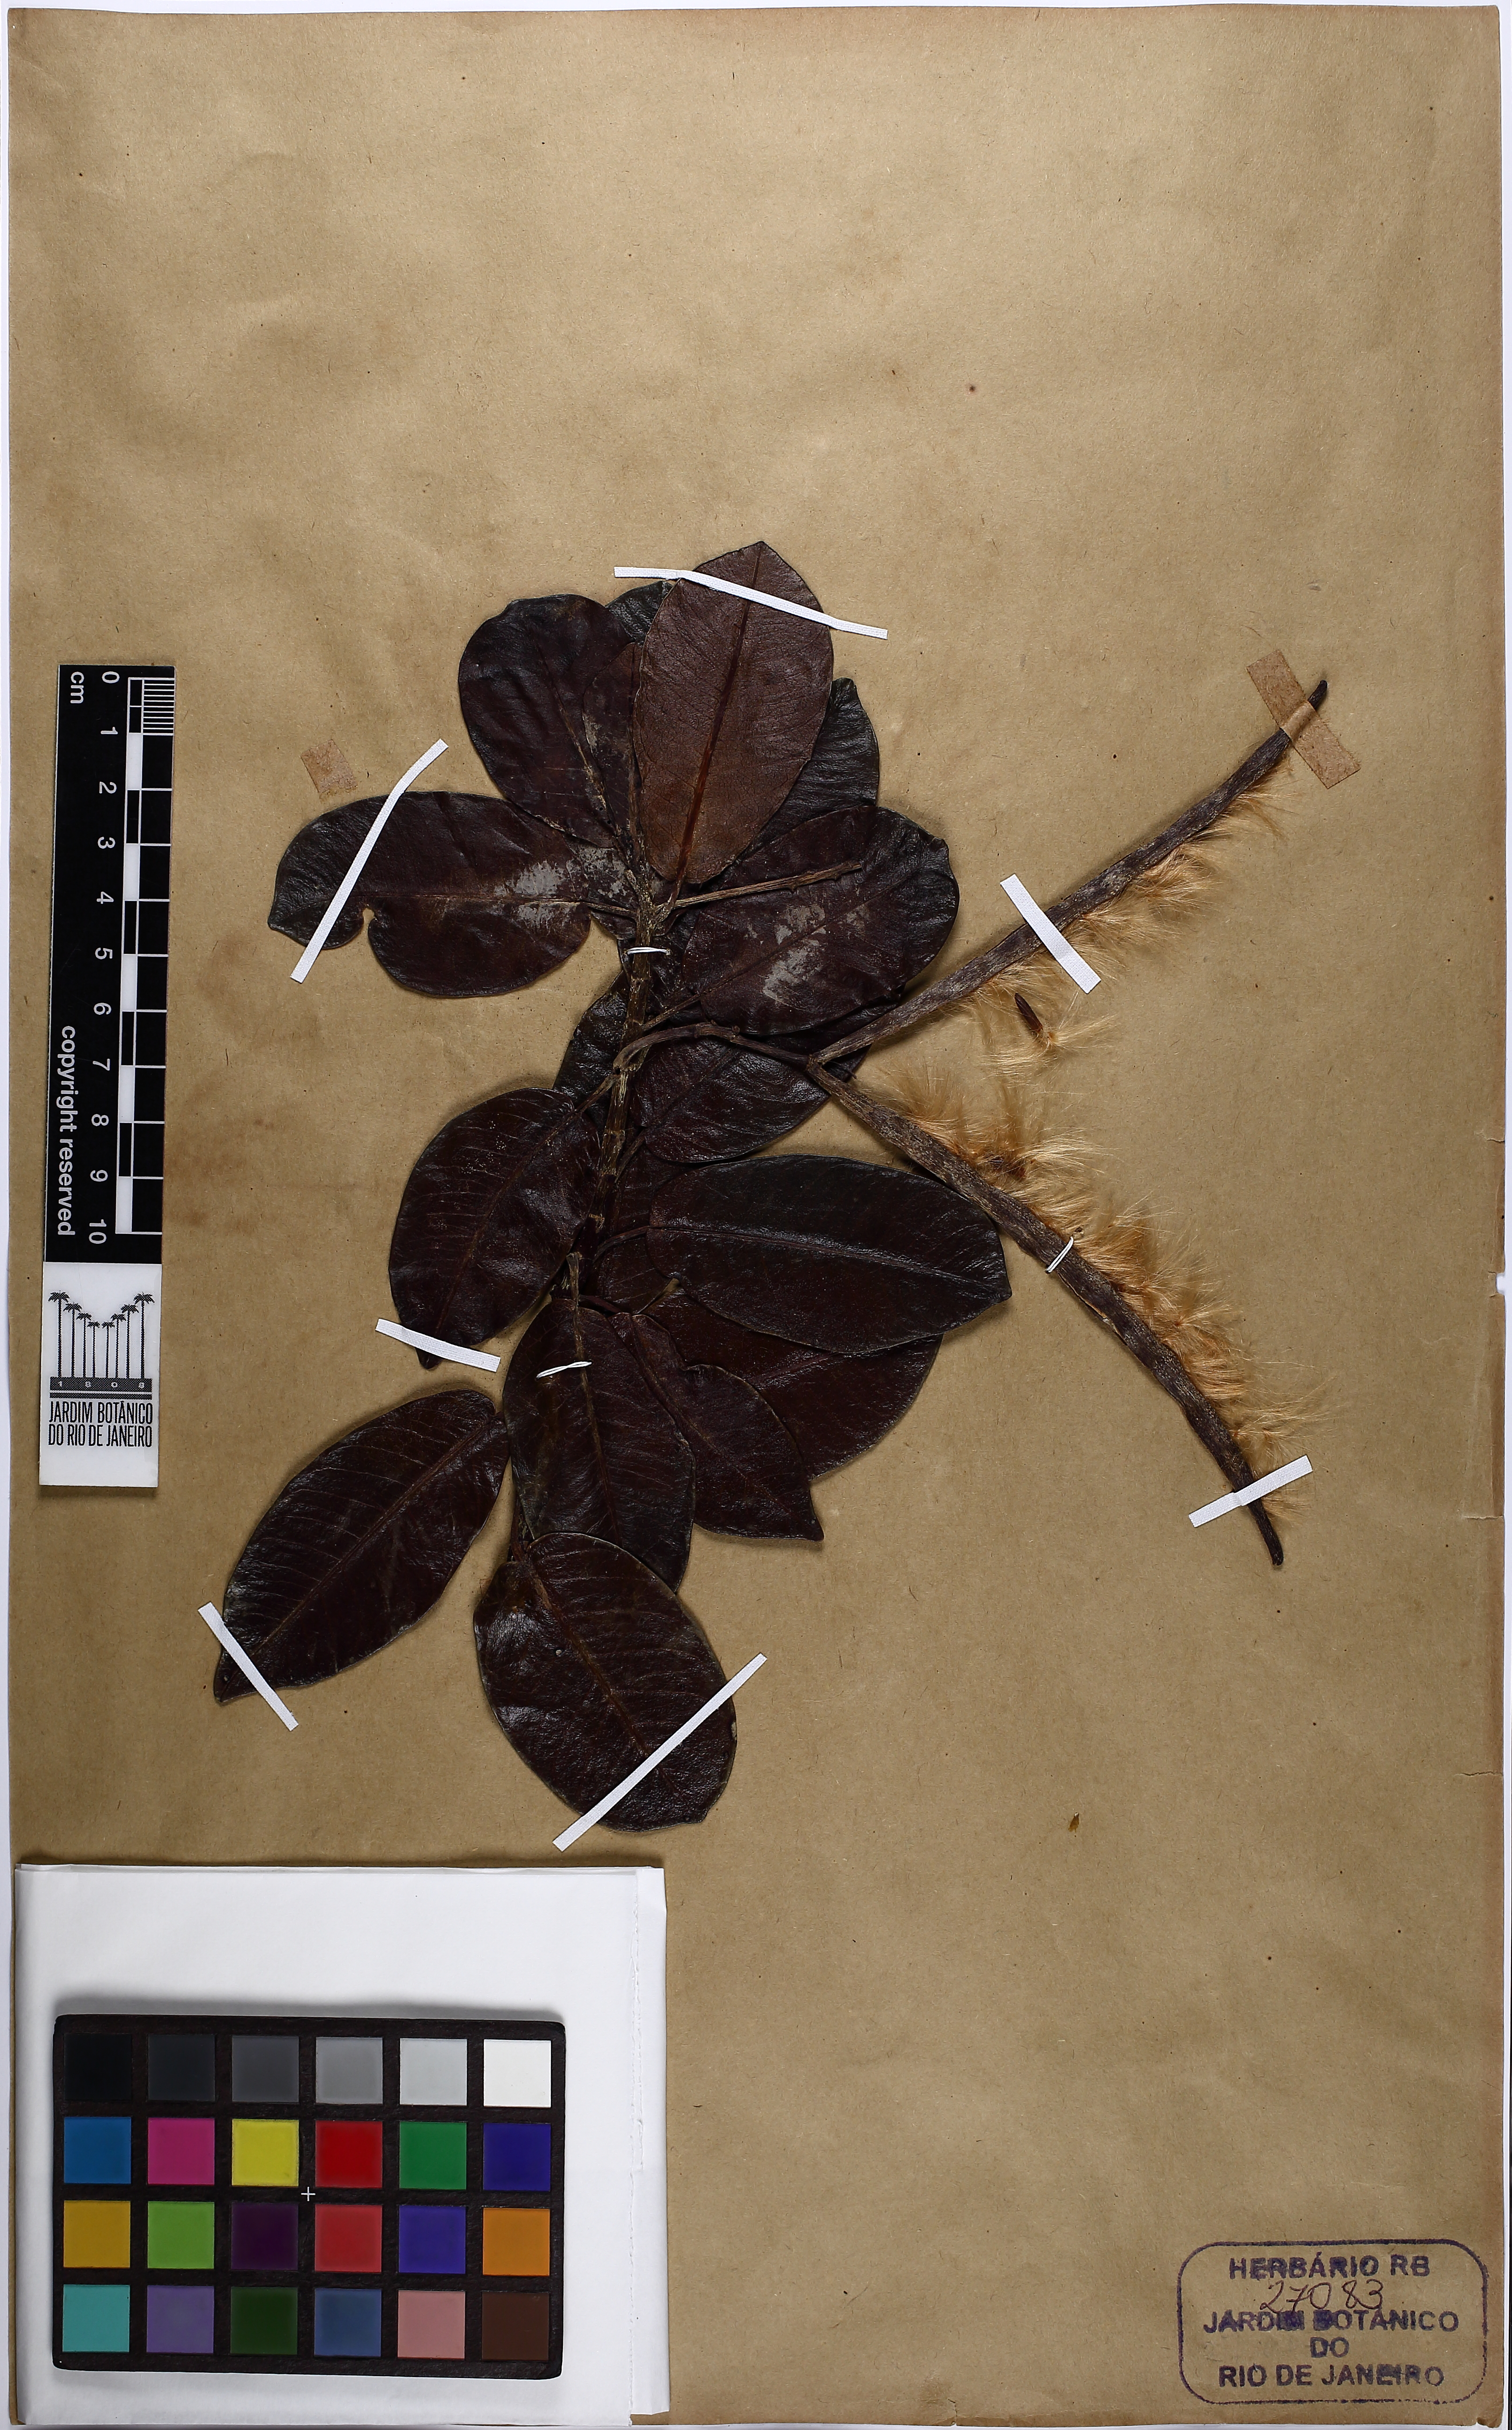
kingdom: Plantae
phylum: Tracheophyta
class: Magnoliopsida
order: Gentianales
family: Apocynaceae
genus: Mandevilla
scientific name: Mandevilla lucida
